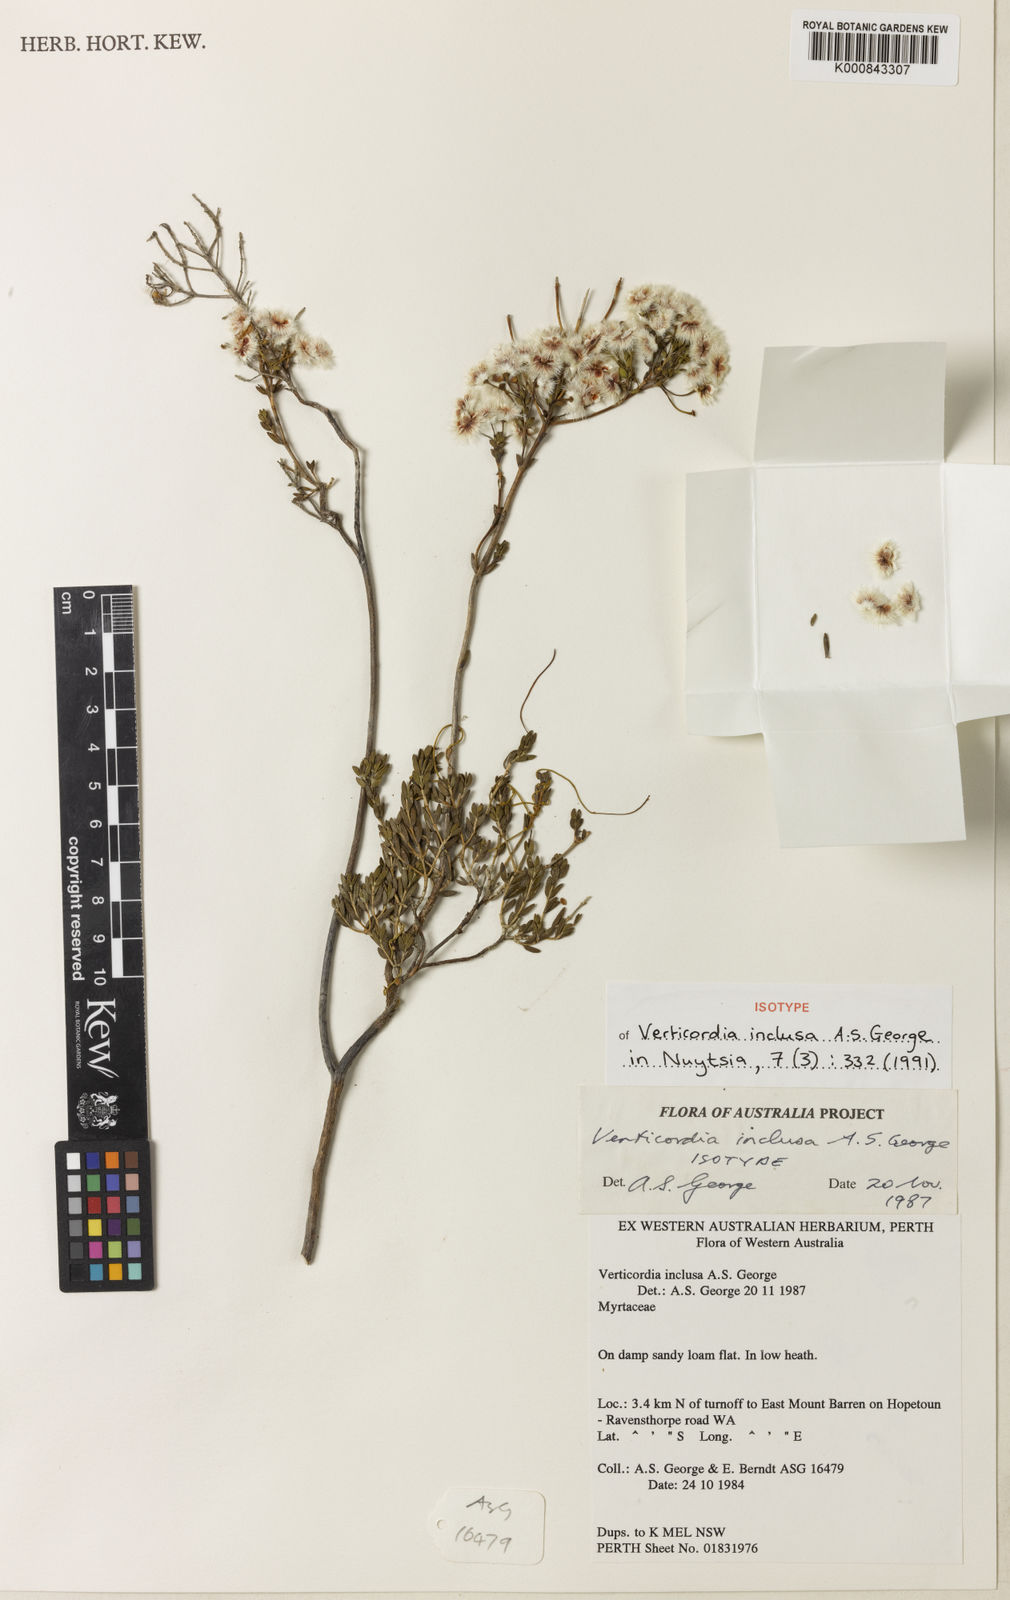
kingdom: Plantae
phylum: Tracheophyta
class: Magnoliopsida
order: Myrtales
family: Myrtaceae
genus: Verticordia
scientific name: Verticordia inclusa
